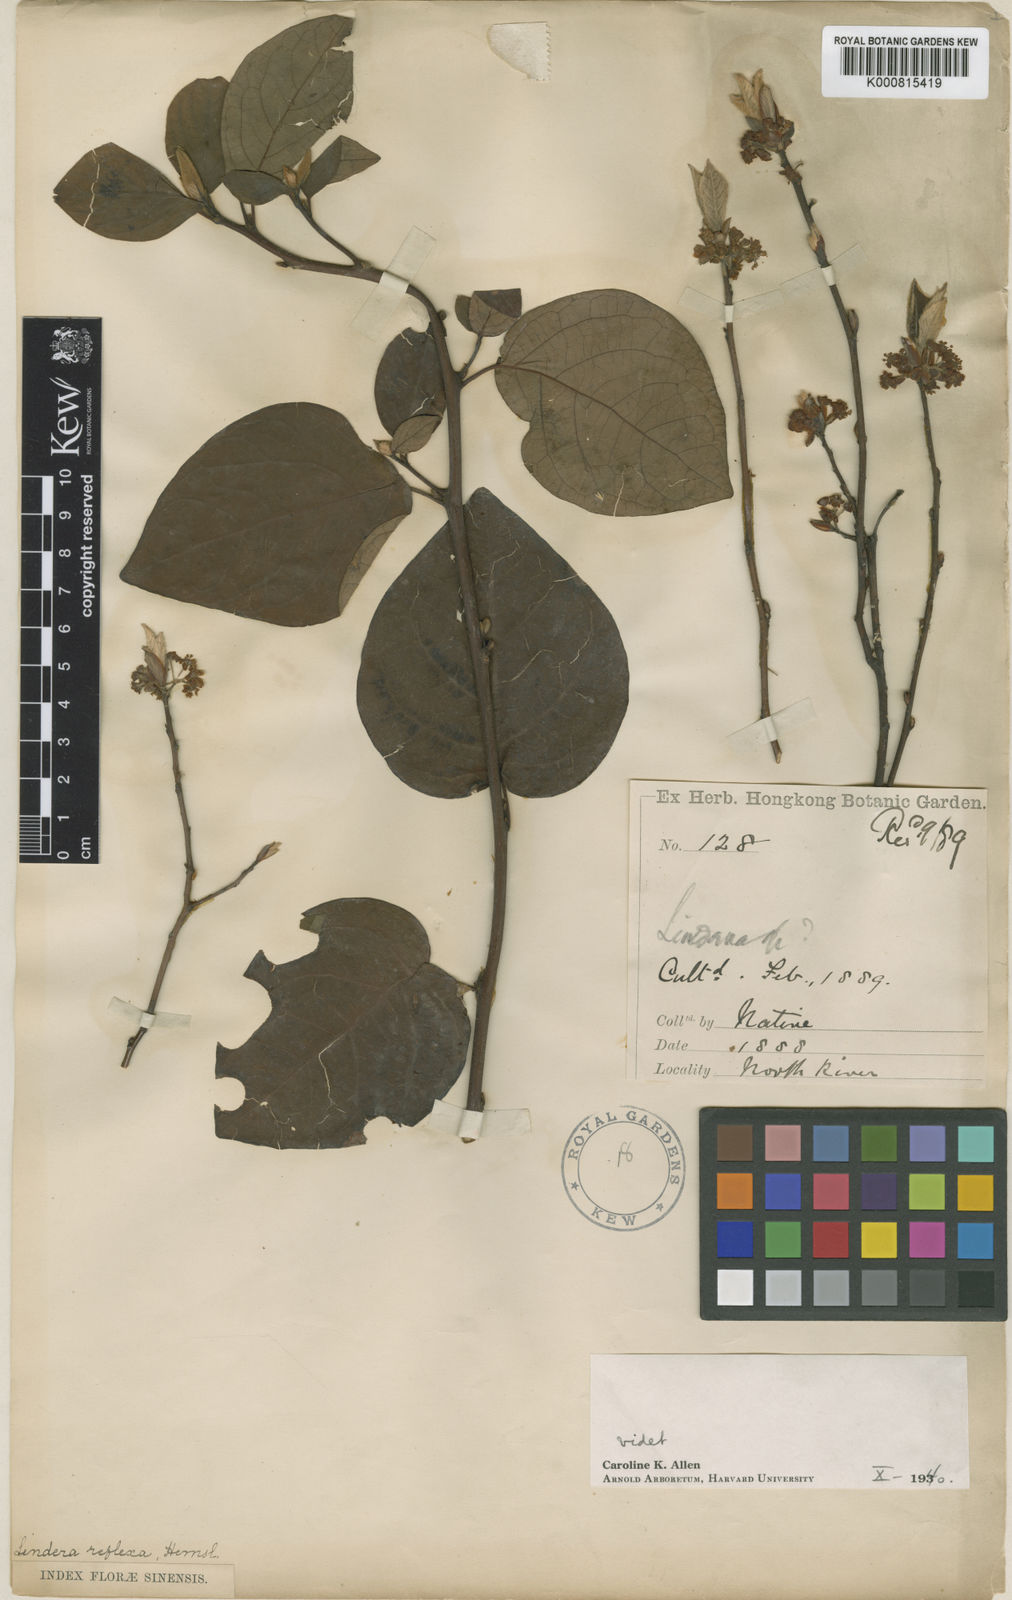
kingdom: Plantae
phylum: Tracheophyta
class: Magnoliopsida
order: Laurales
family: Lauraceae
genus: Lindera
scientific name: Lindera reflexa
